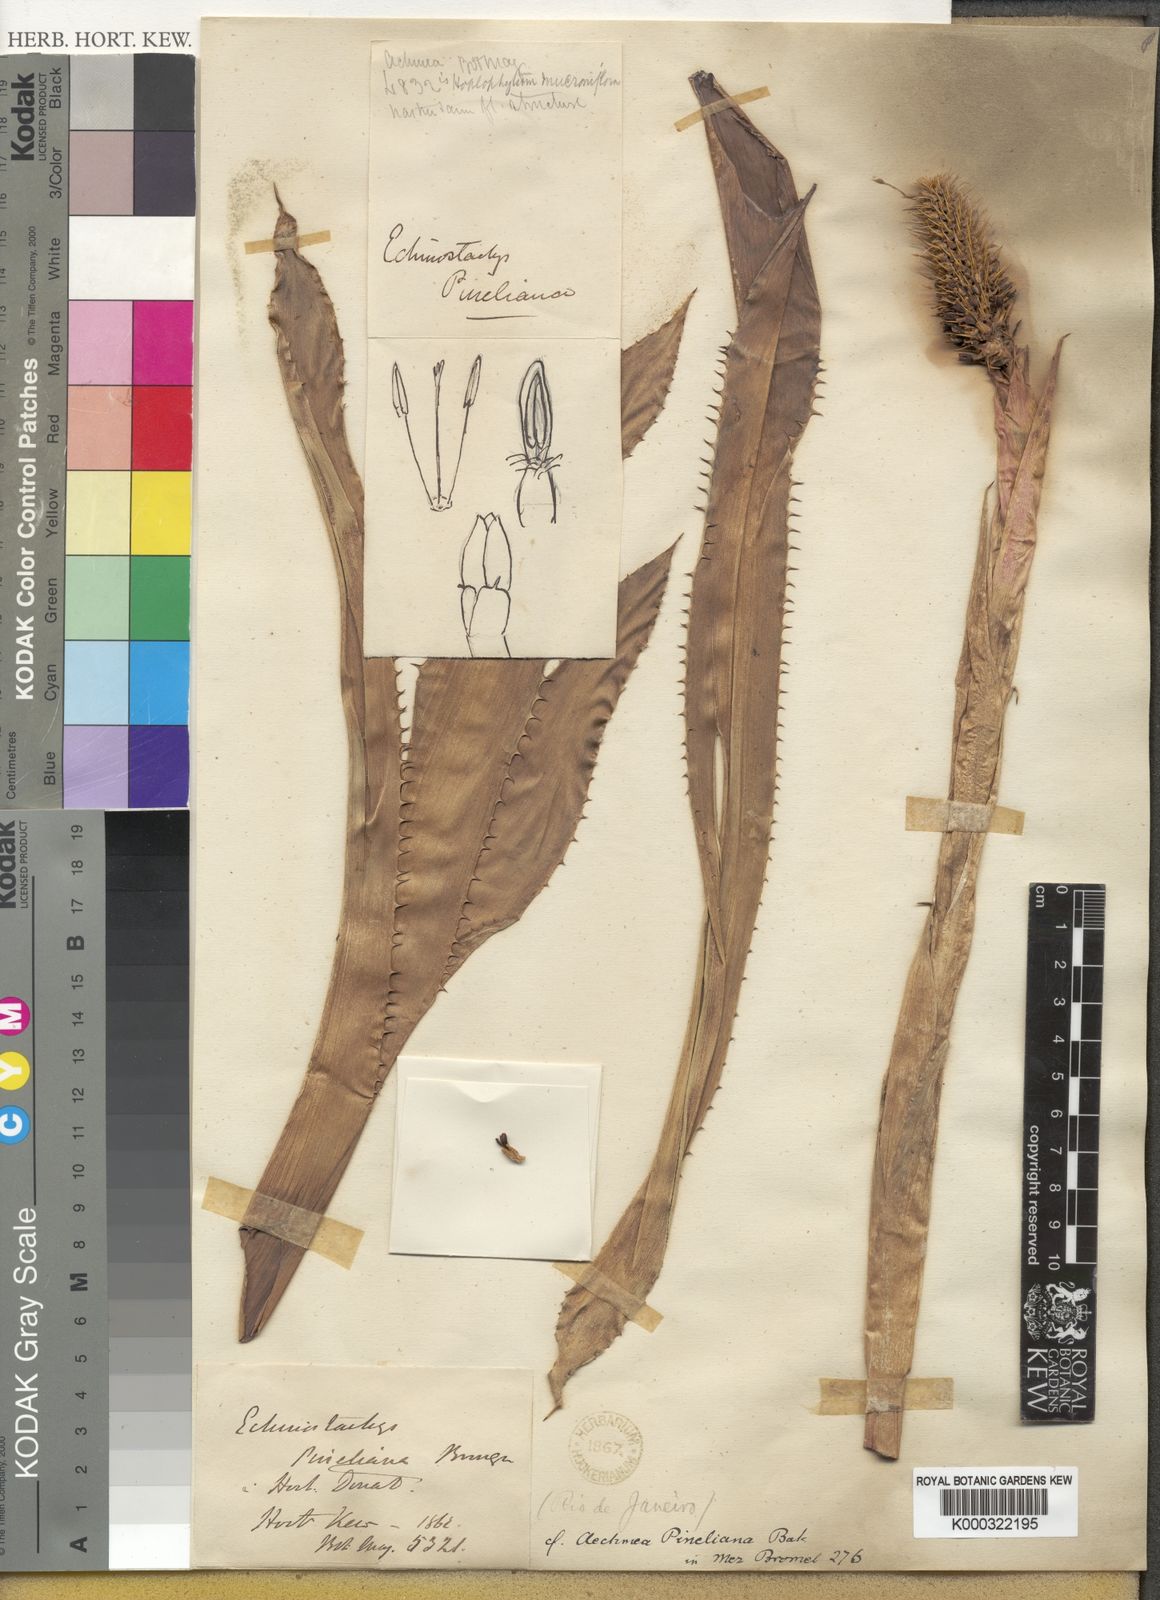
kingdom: Plantae
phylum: Tracheophyta
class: Liliopsida
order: Poales
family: Bromeliaceae
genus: Aechmea
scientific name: Aechmea pineliana
